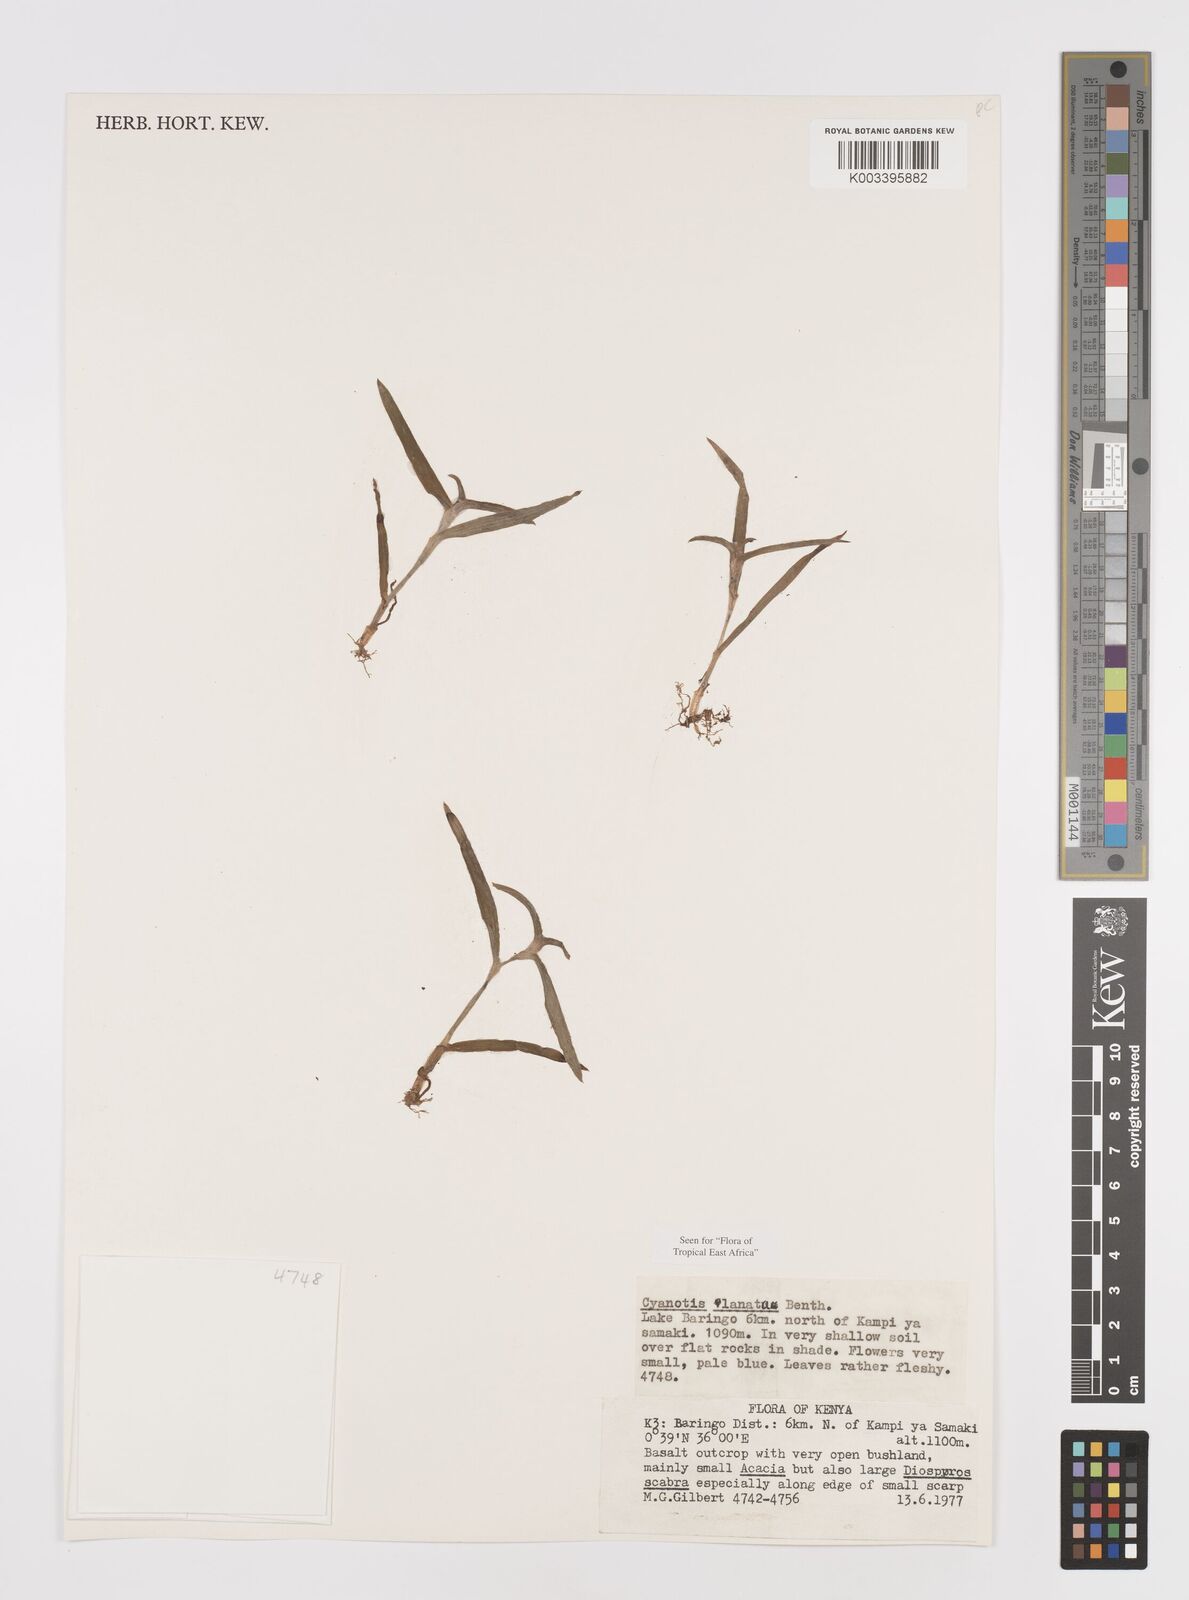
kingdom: Plantae
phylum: Tracheophyta
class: Liliopsida
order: Commelinales
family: Commelinaceae
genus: Cyanotis
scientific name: Cyanotis lanata
